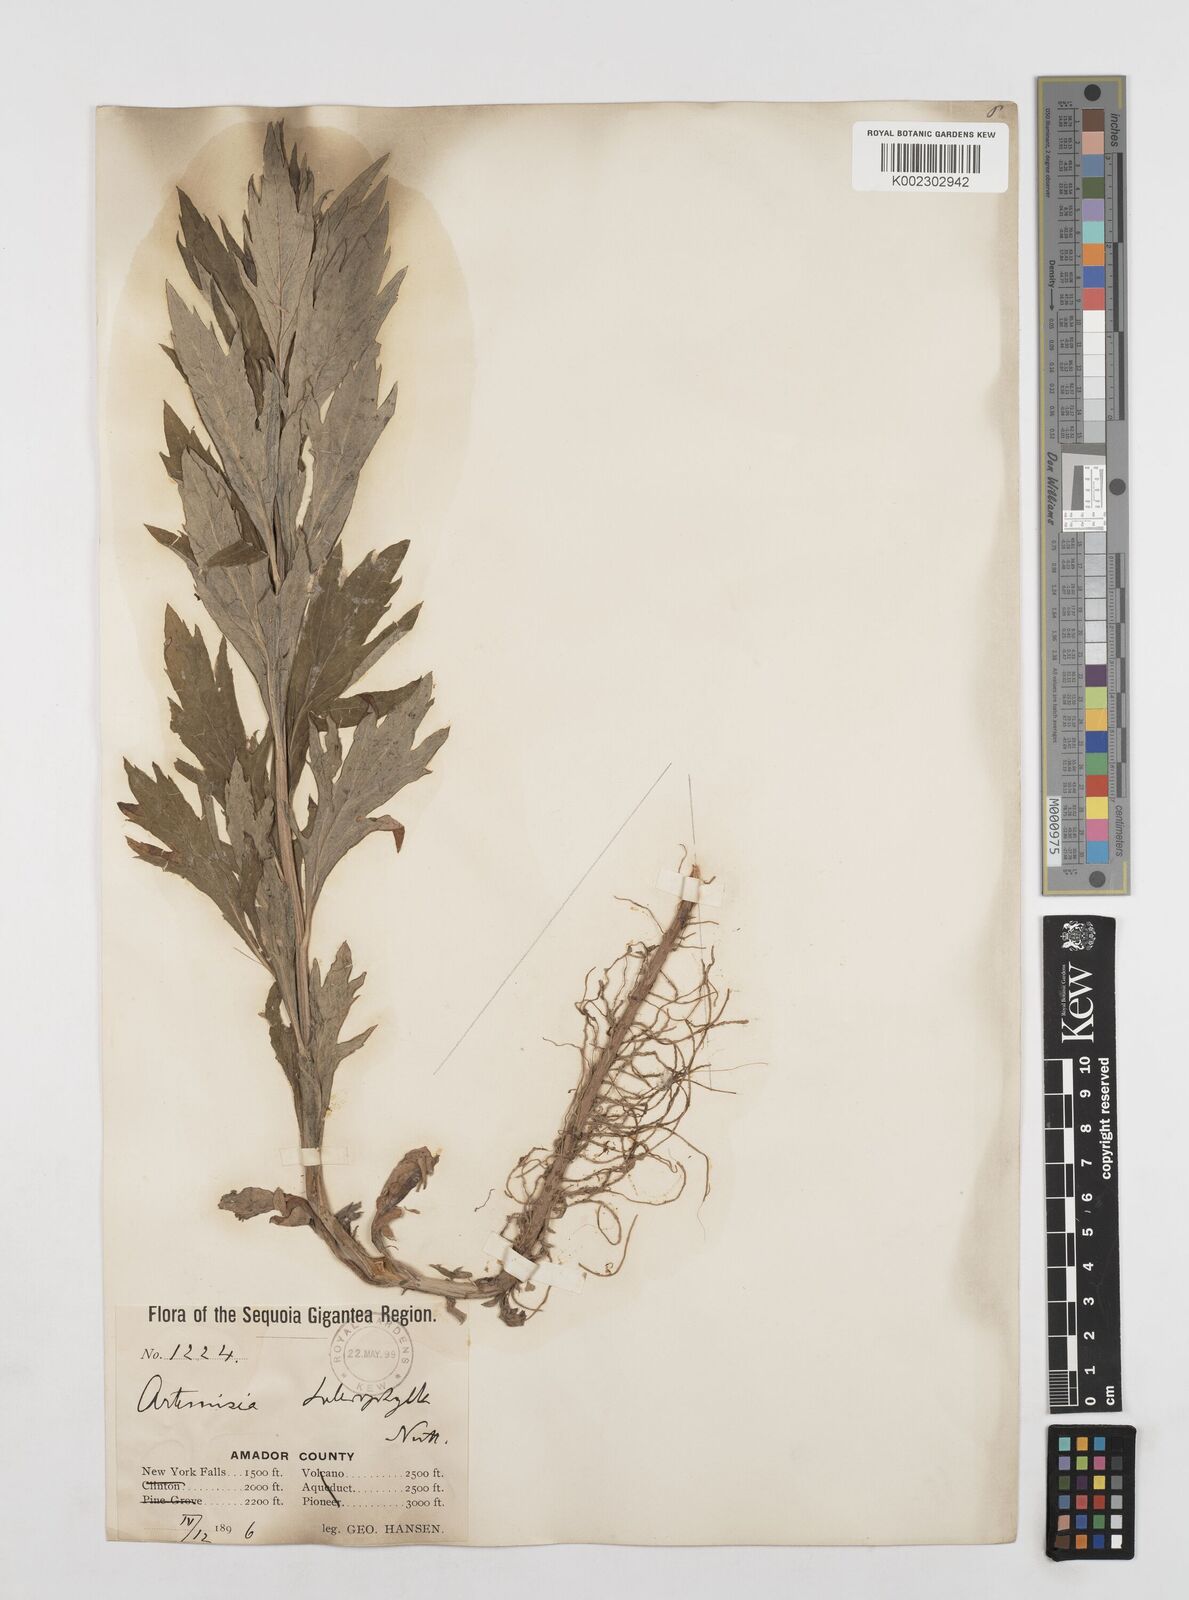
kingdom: Plantae
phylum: Tracheophyta
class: Magnoliopsida
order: Asterales
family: Asteraceae
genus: Artemisia
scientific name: Artemisia douglasiana
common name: Northwest mugwort
